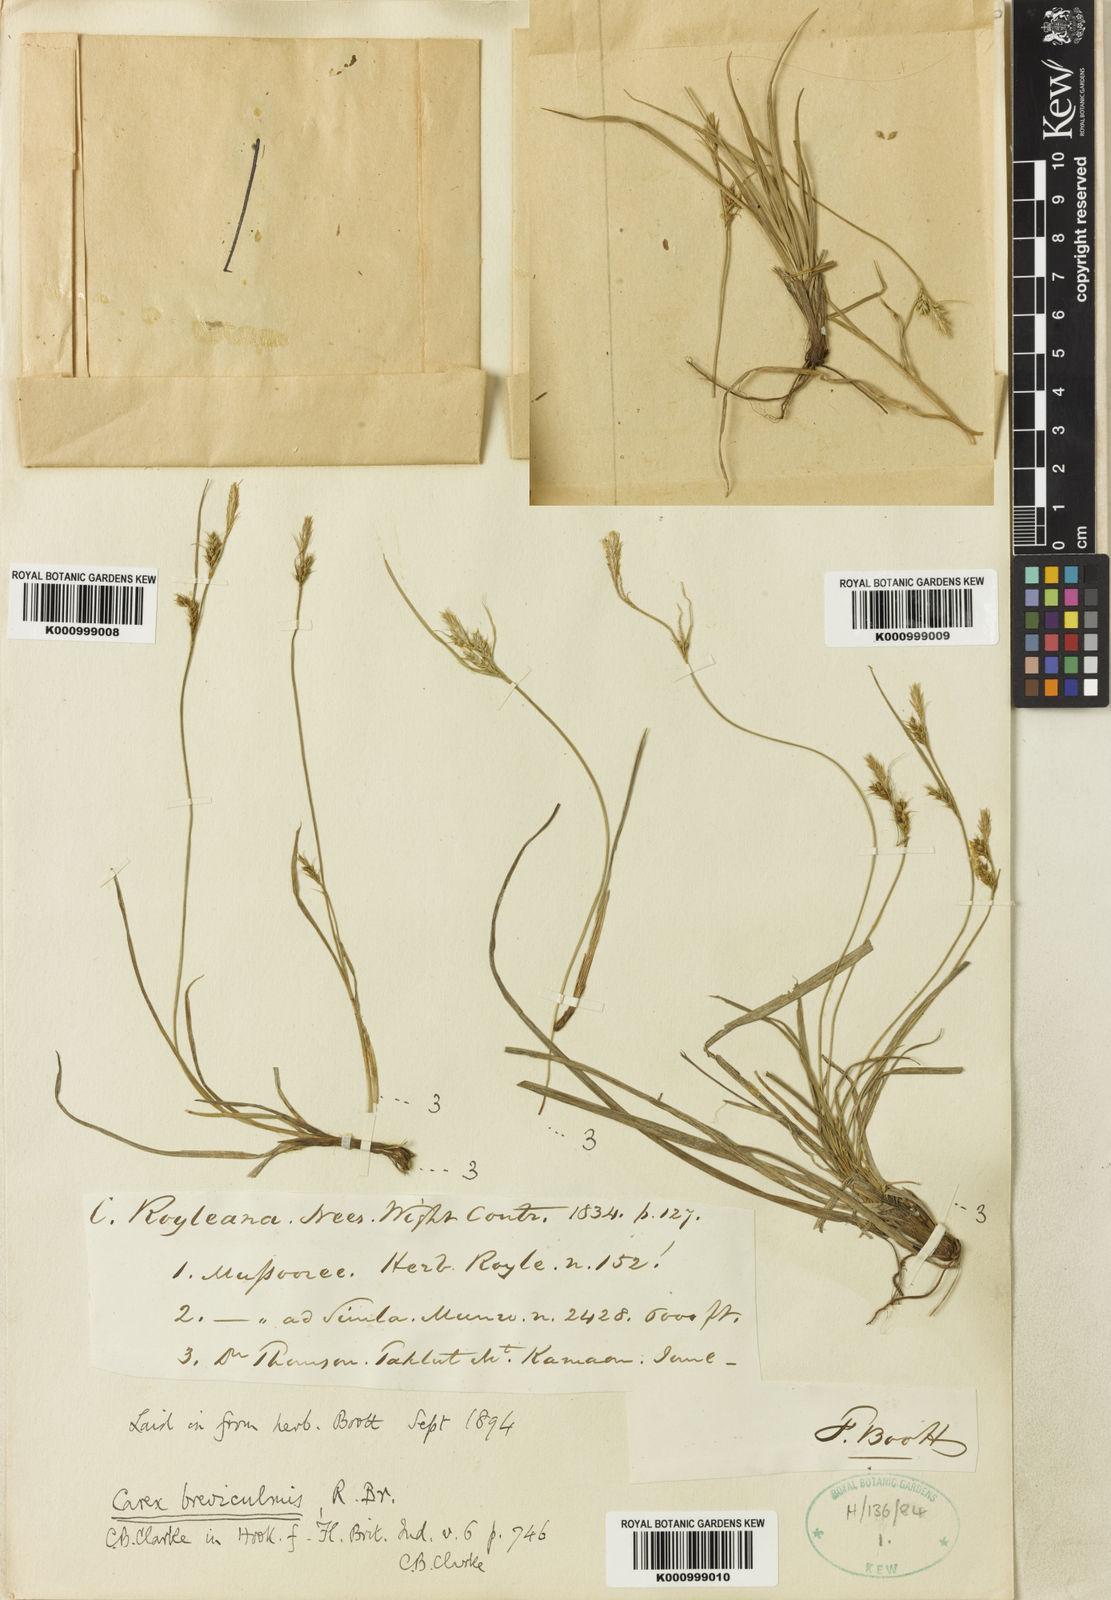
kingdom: Plantae
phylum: Tracheophyta
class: Liliopsida
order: Poales
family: Cyperaceae
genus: Carex
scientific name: Carex breviculmis
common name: Asian shortstem sedge
